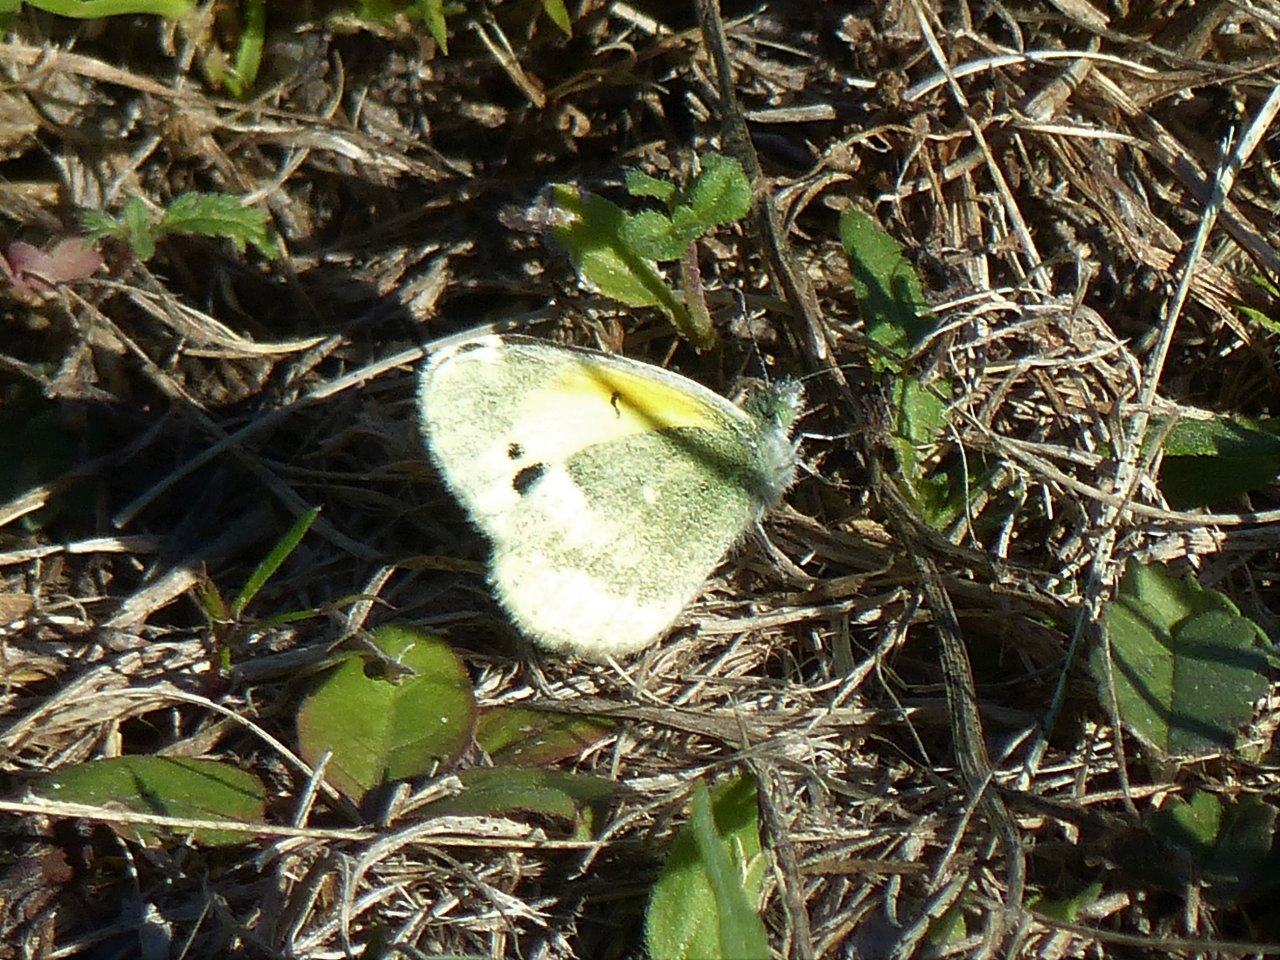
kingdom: Animalia
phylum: Arthropoda
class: Insecta
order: Lepidoptera
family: Pieridae
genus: Nathalis
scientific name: Nathalis iole
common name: Dainty Sulphur
